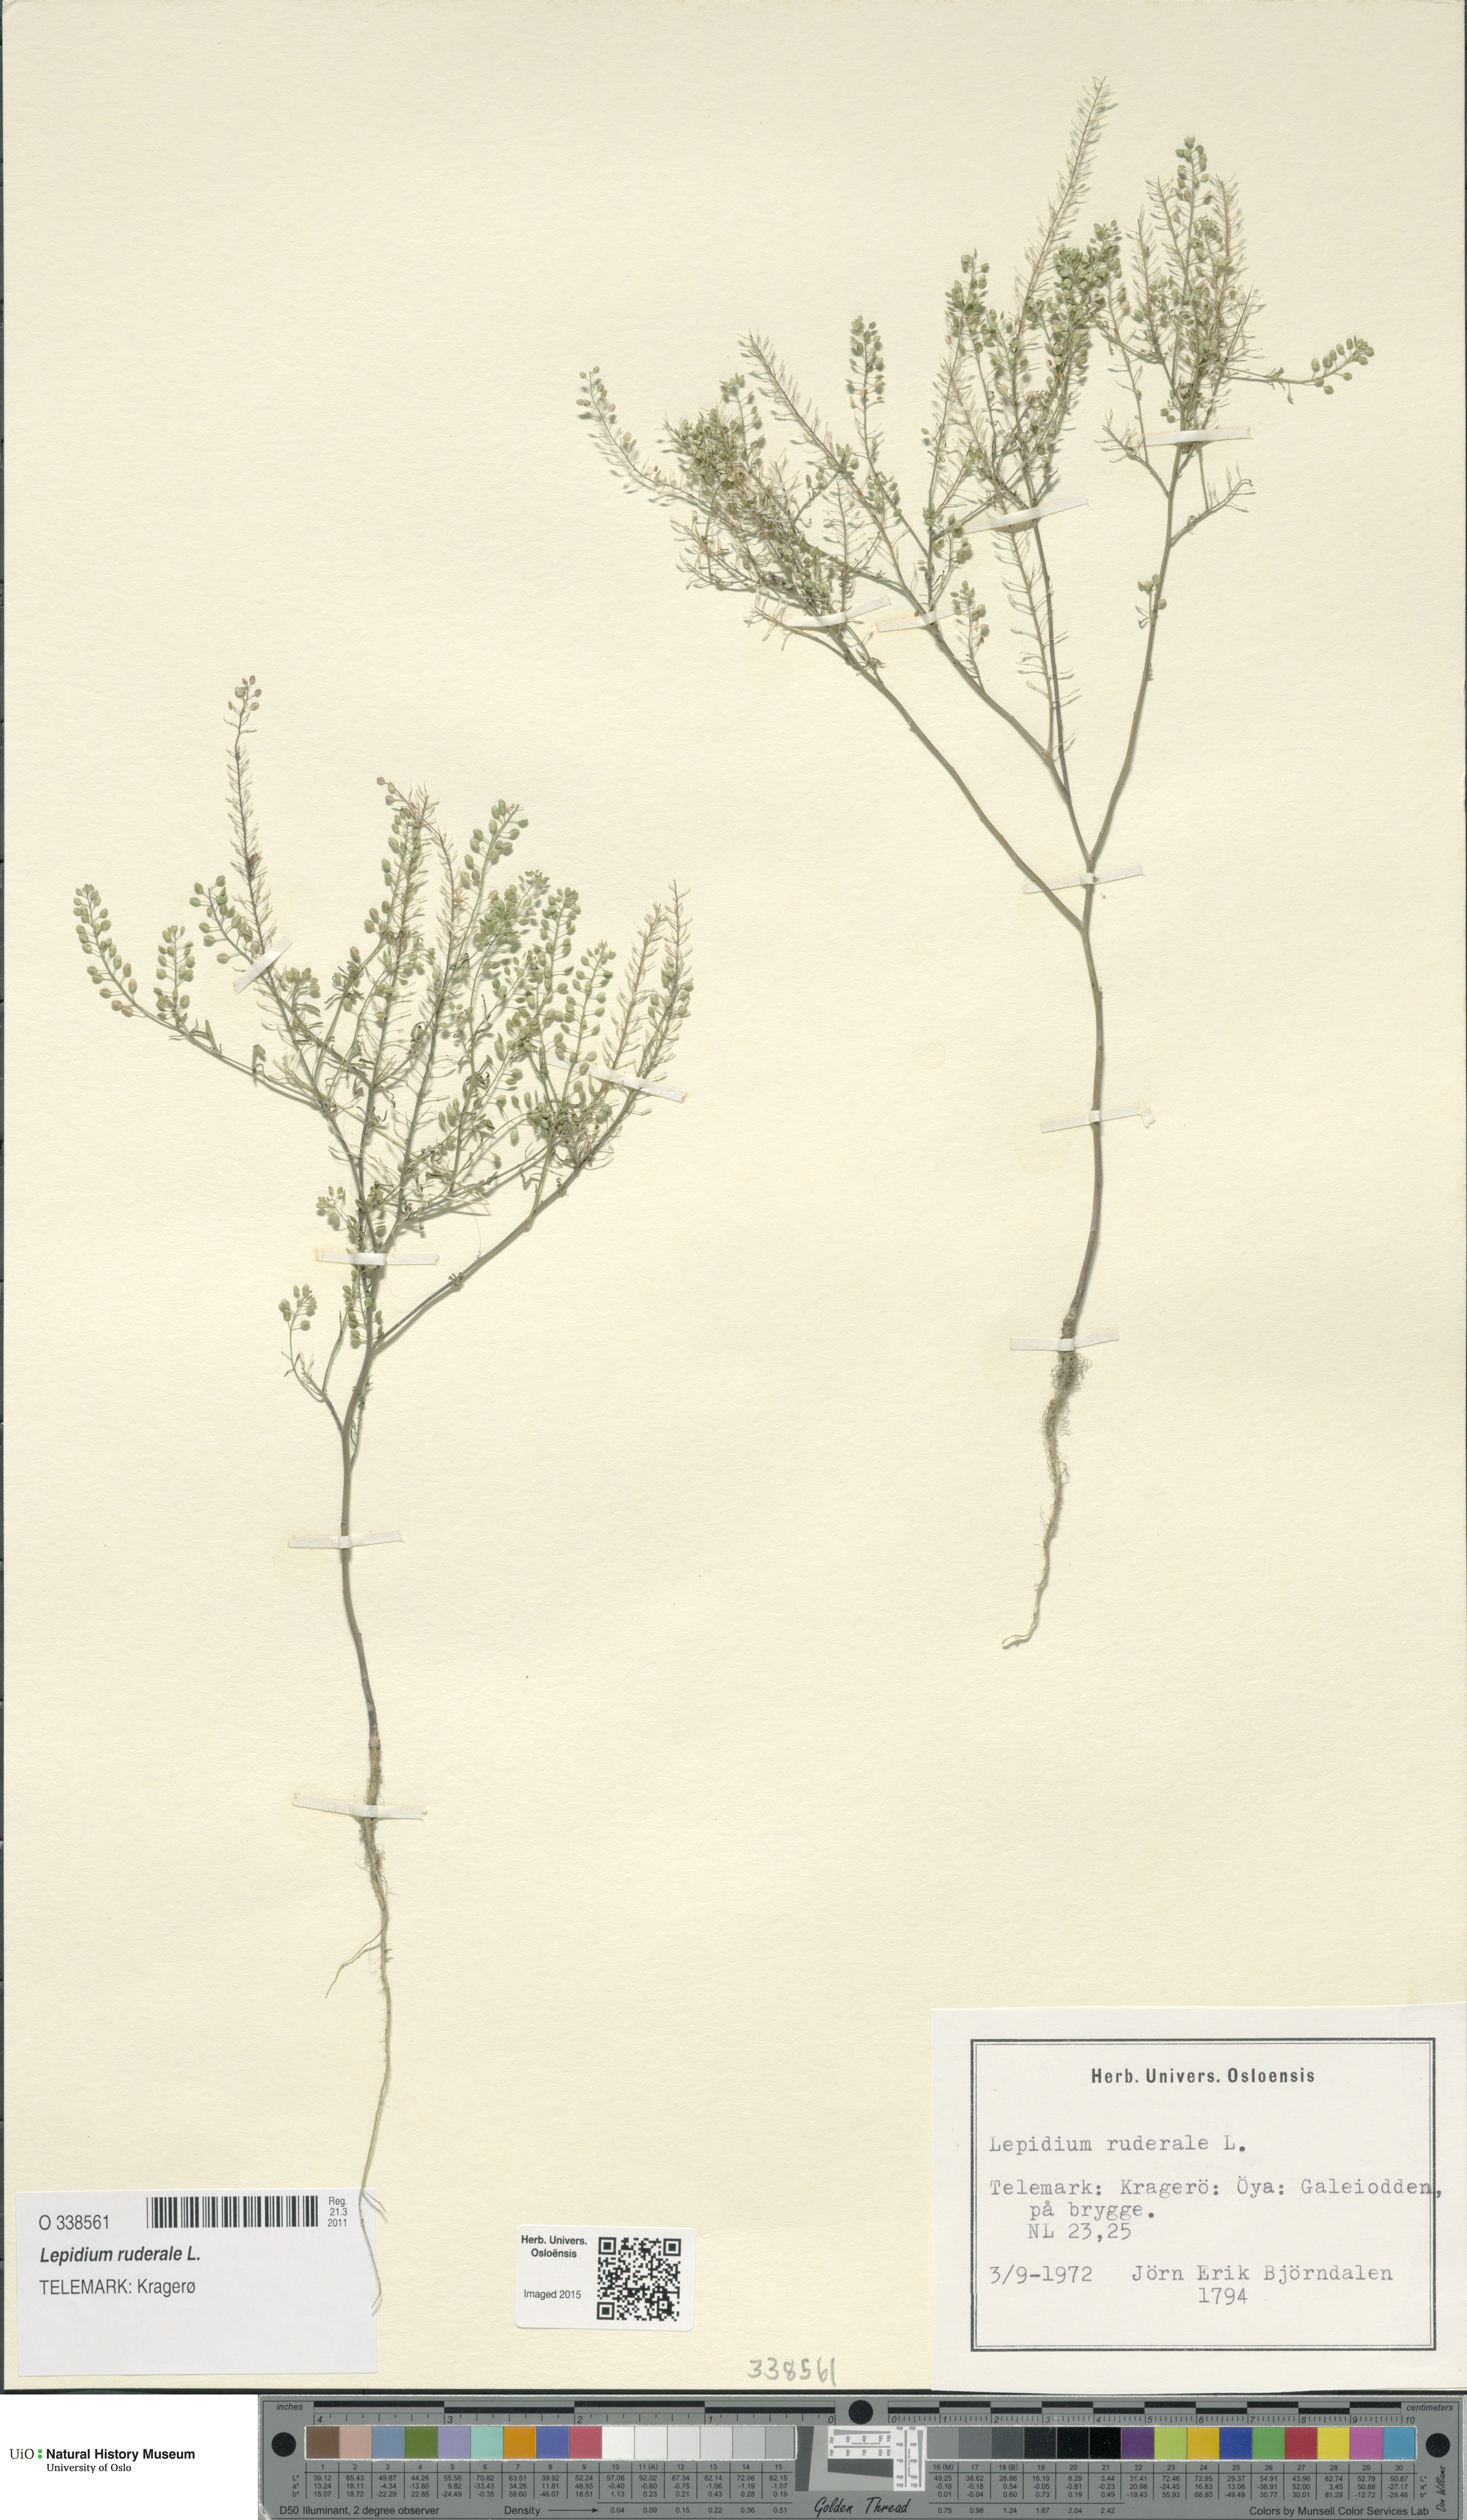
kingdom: Plantae
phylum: Tracheophyta
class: Magnoliopsida
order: Brassicales
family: Brassicaceae
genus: Lepidium
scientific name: Lepidium ruderale
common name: Narrow-leaved pepperwort
